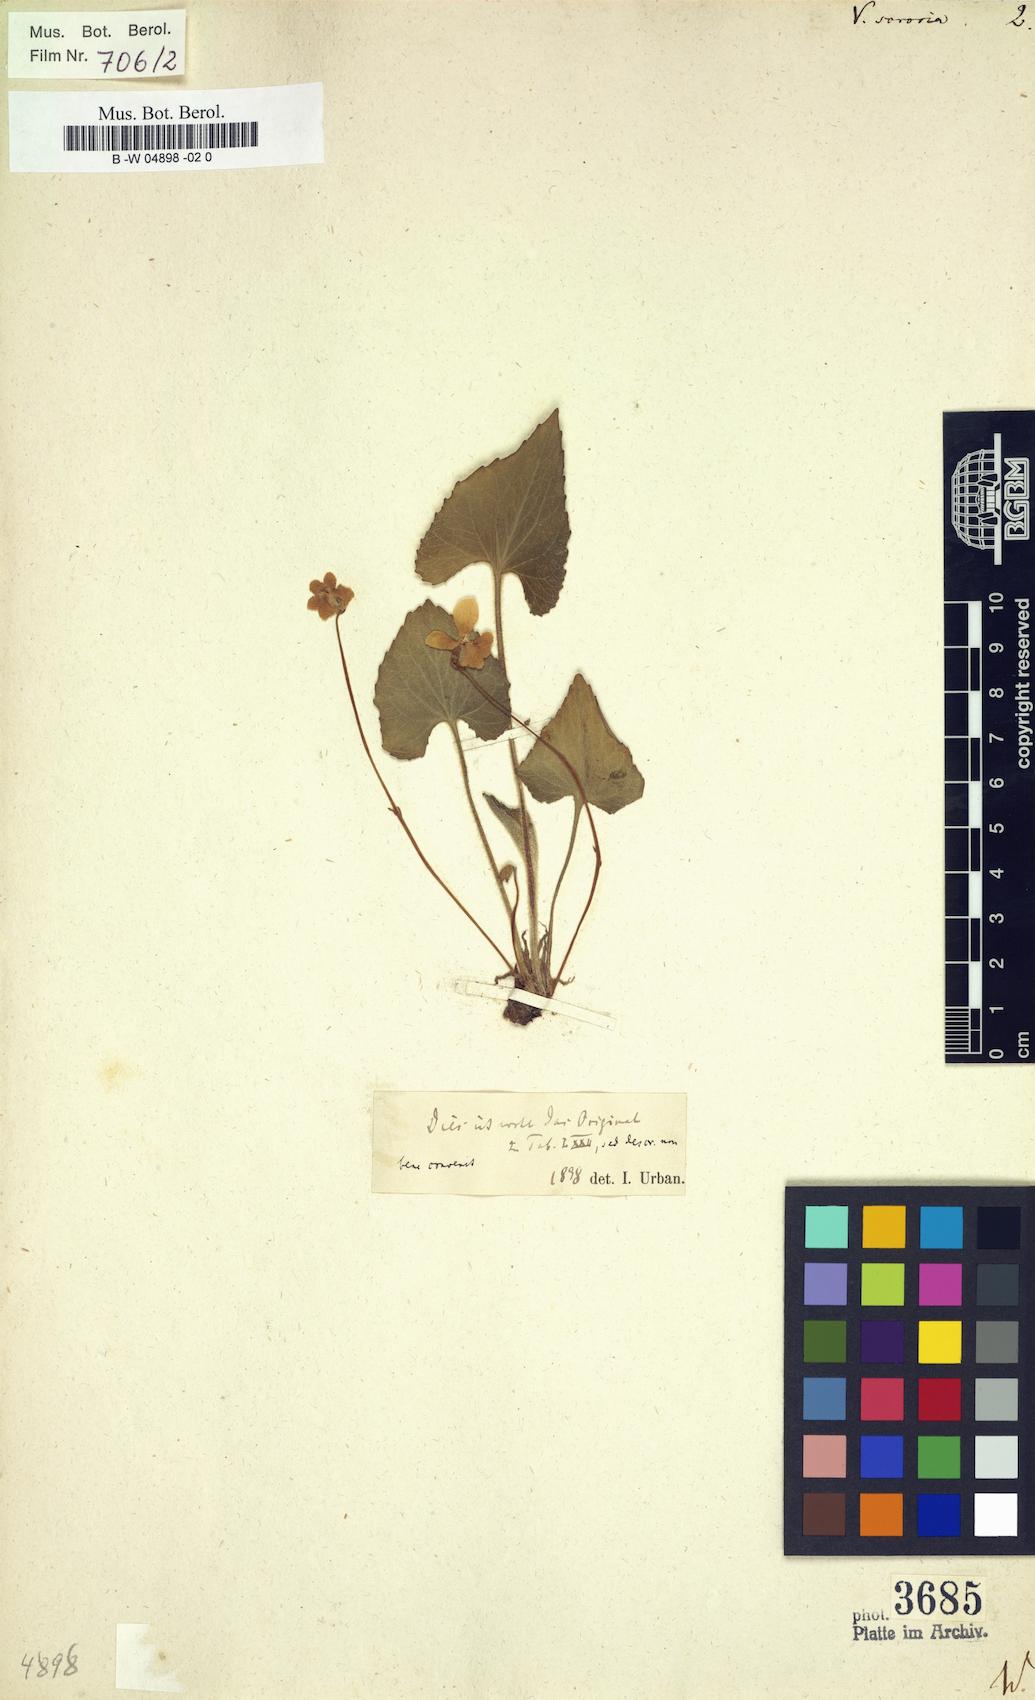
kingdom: Plantae
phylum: Tracheophyta
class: Magnoliopsida
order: Malpighiales
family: Violaceae
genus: Viola
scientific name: Viola sororia
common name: Dooryard violet
